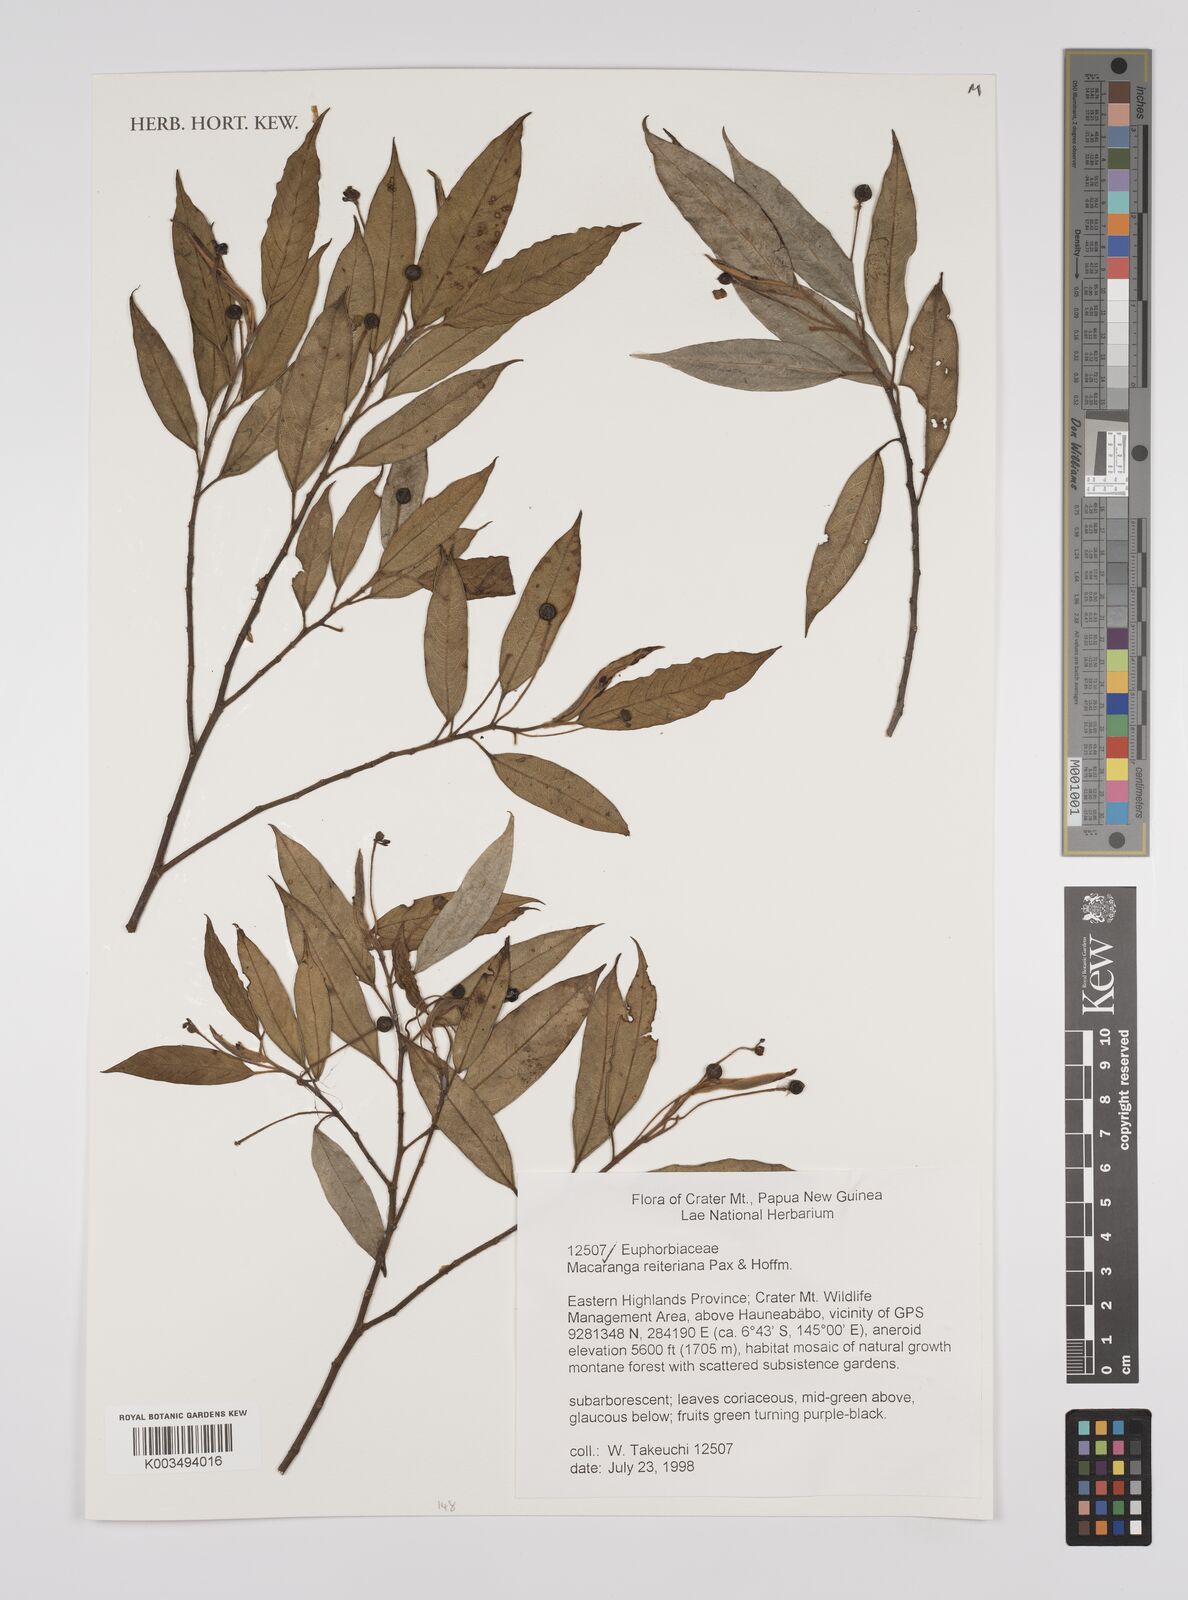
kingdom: Plantae
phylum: Tracheophyta
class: Magnoliopsida
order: Malpighiales
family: Euphorbiaceae
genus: Macaranga
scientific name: Macaranga reiteriana
